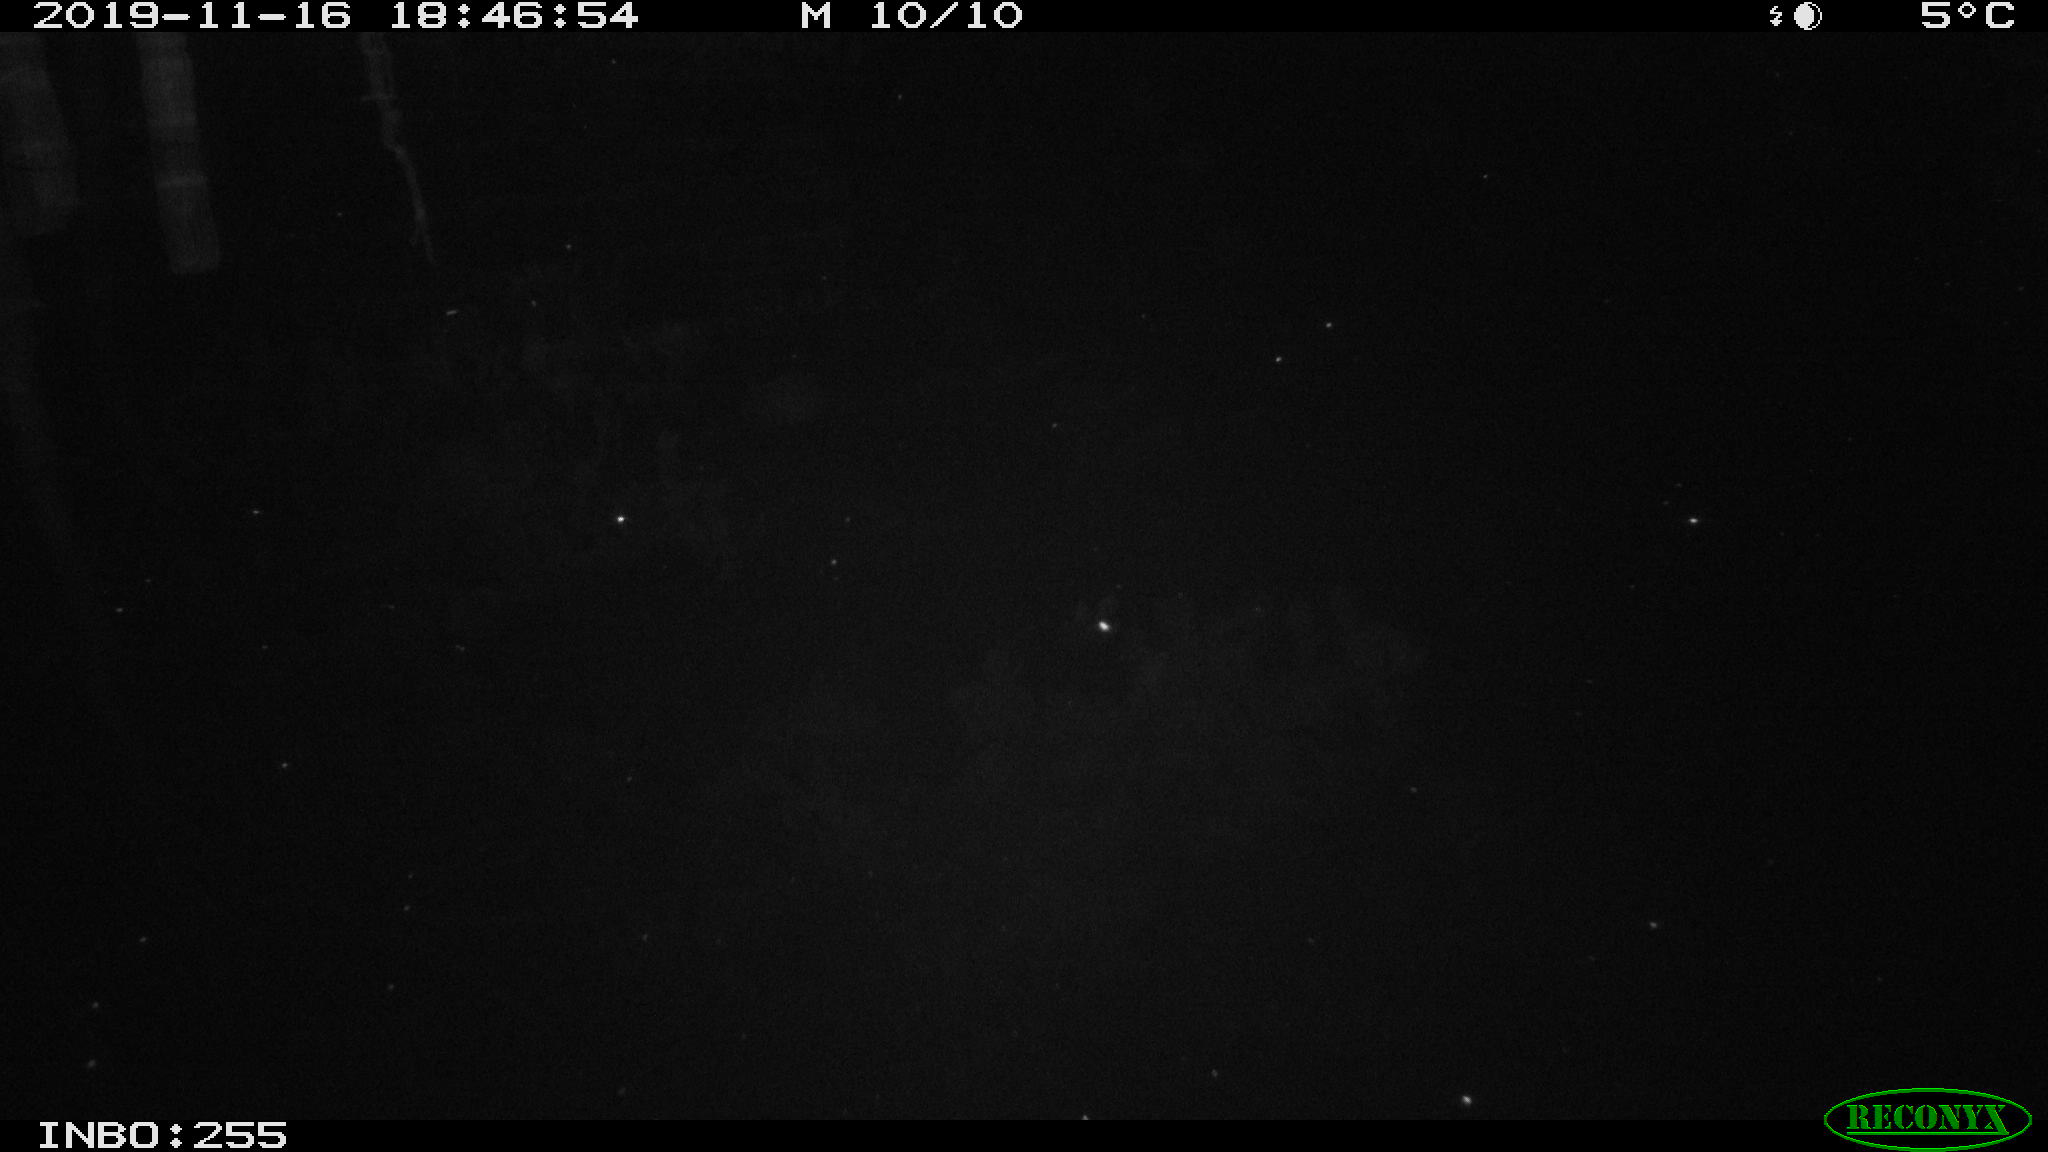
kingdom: Animalia
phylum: Chordata
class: Mammalia
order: Rodentia
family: Muridae
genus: Rattus
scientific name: Rattus norvegicus
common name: Brown rat
